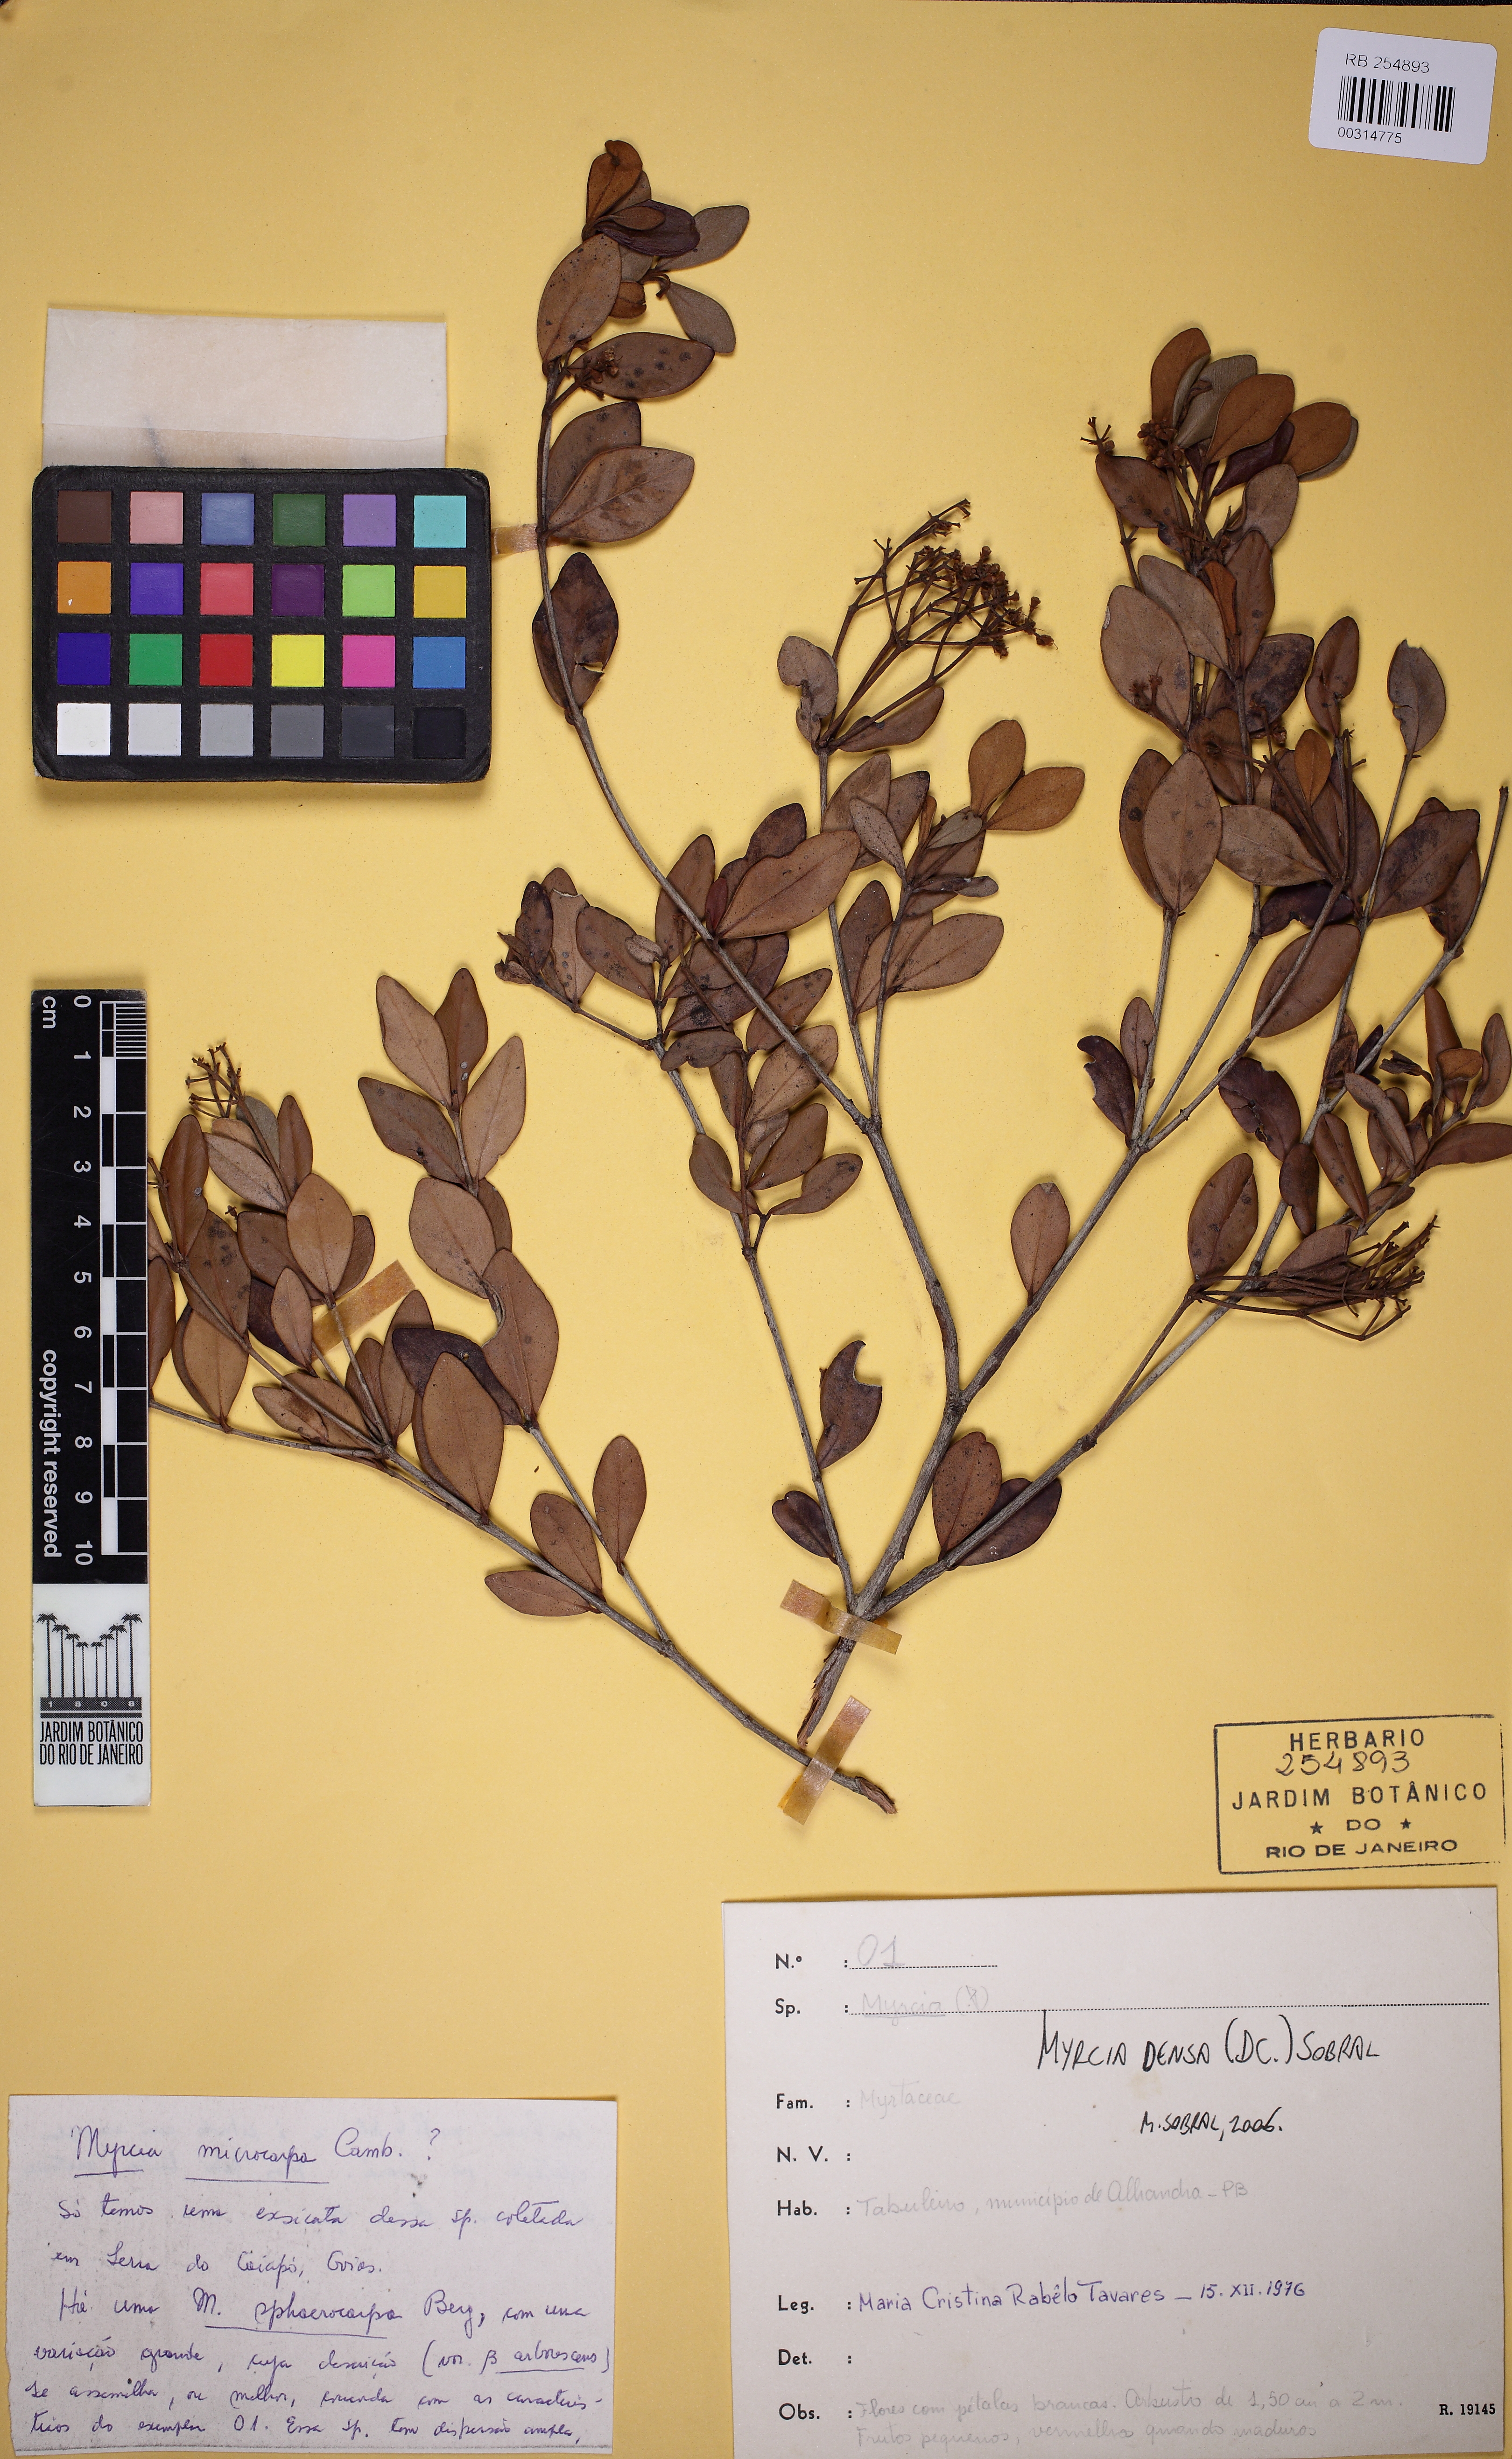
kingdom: Plantae
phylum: Tracheophyta
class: Magnoliopsida
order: Myrtales
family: Myrtaceae
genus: Myrcia
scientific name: Myrcia densa
